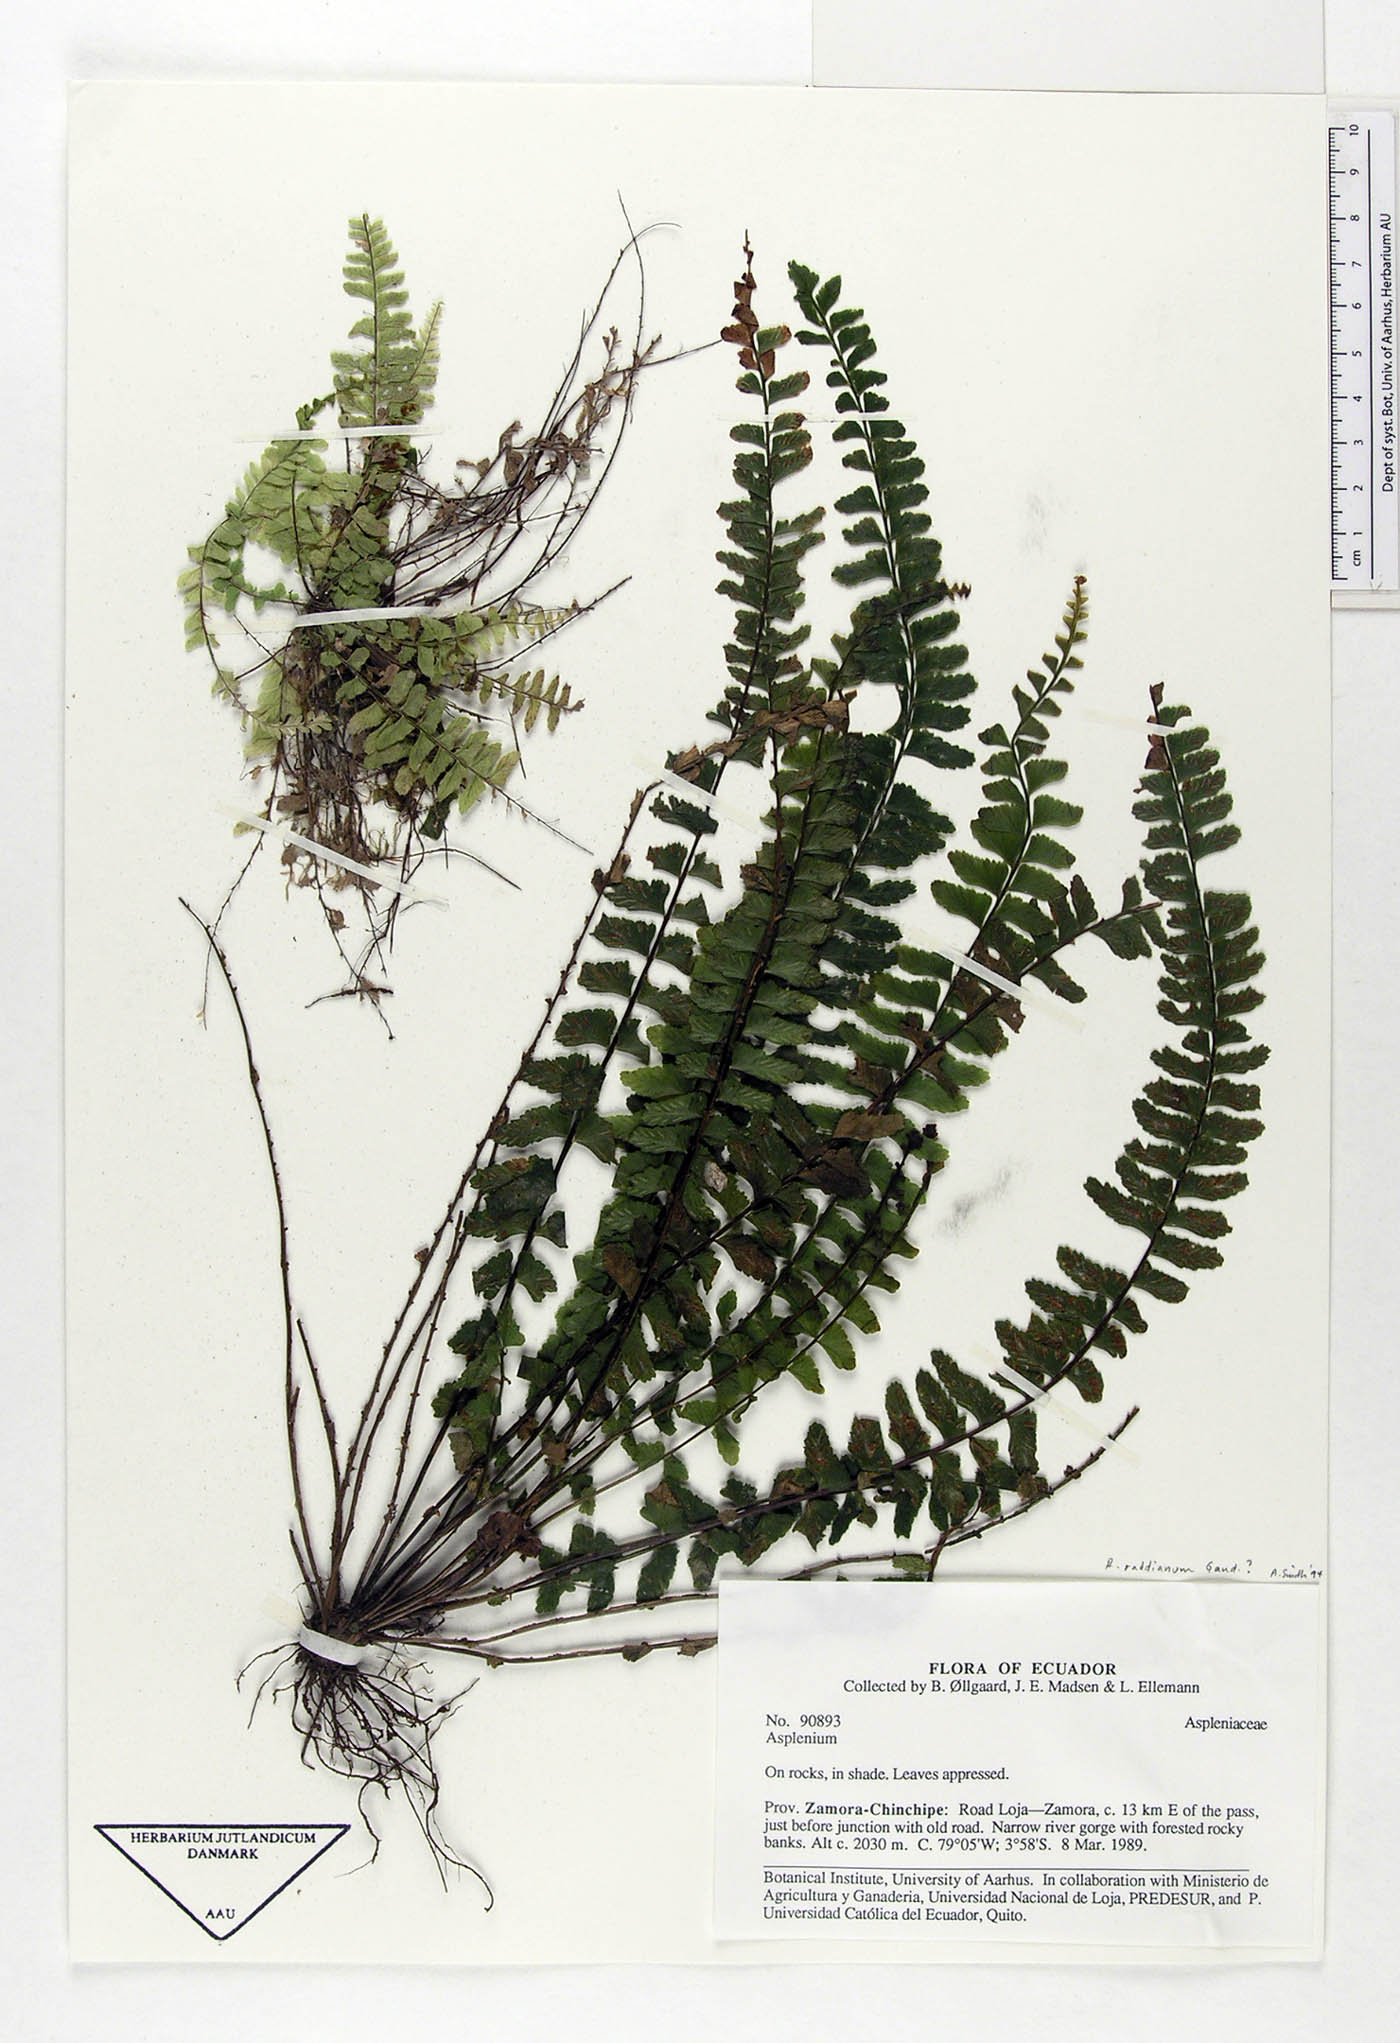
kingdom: Plantae
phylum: Tracheophyta
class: Polypodiopsida
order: Polypodiales
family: Aspleniaceae
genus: Asplenium
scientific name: Asplenium raddianum
